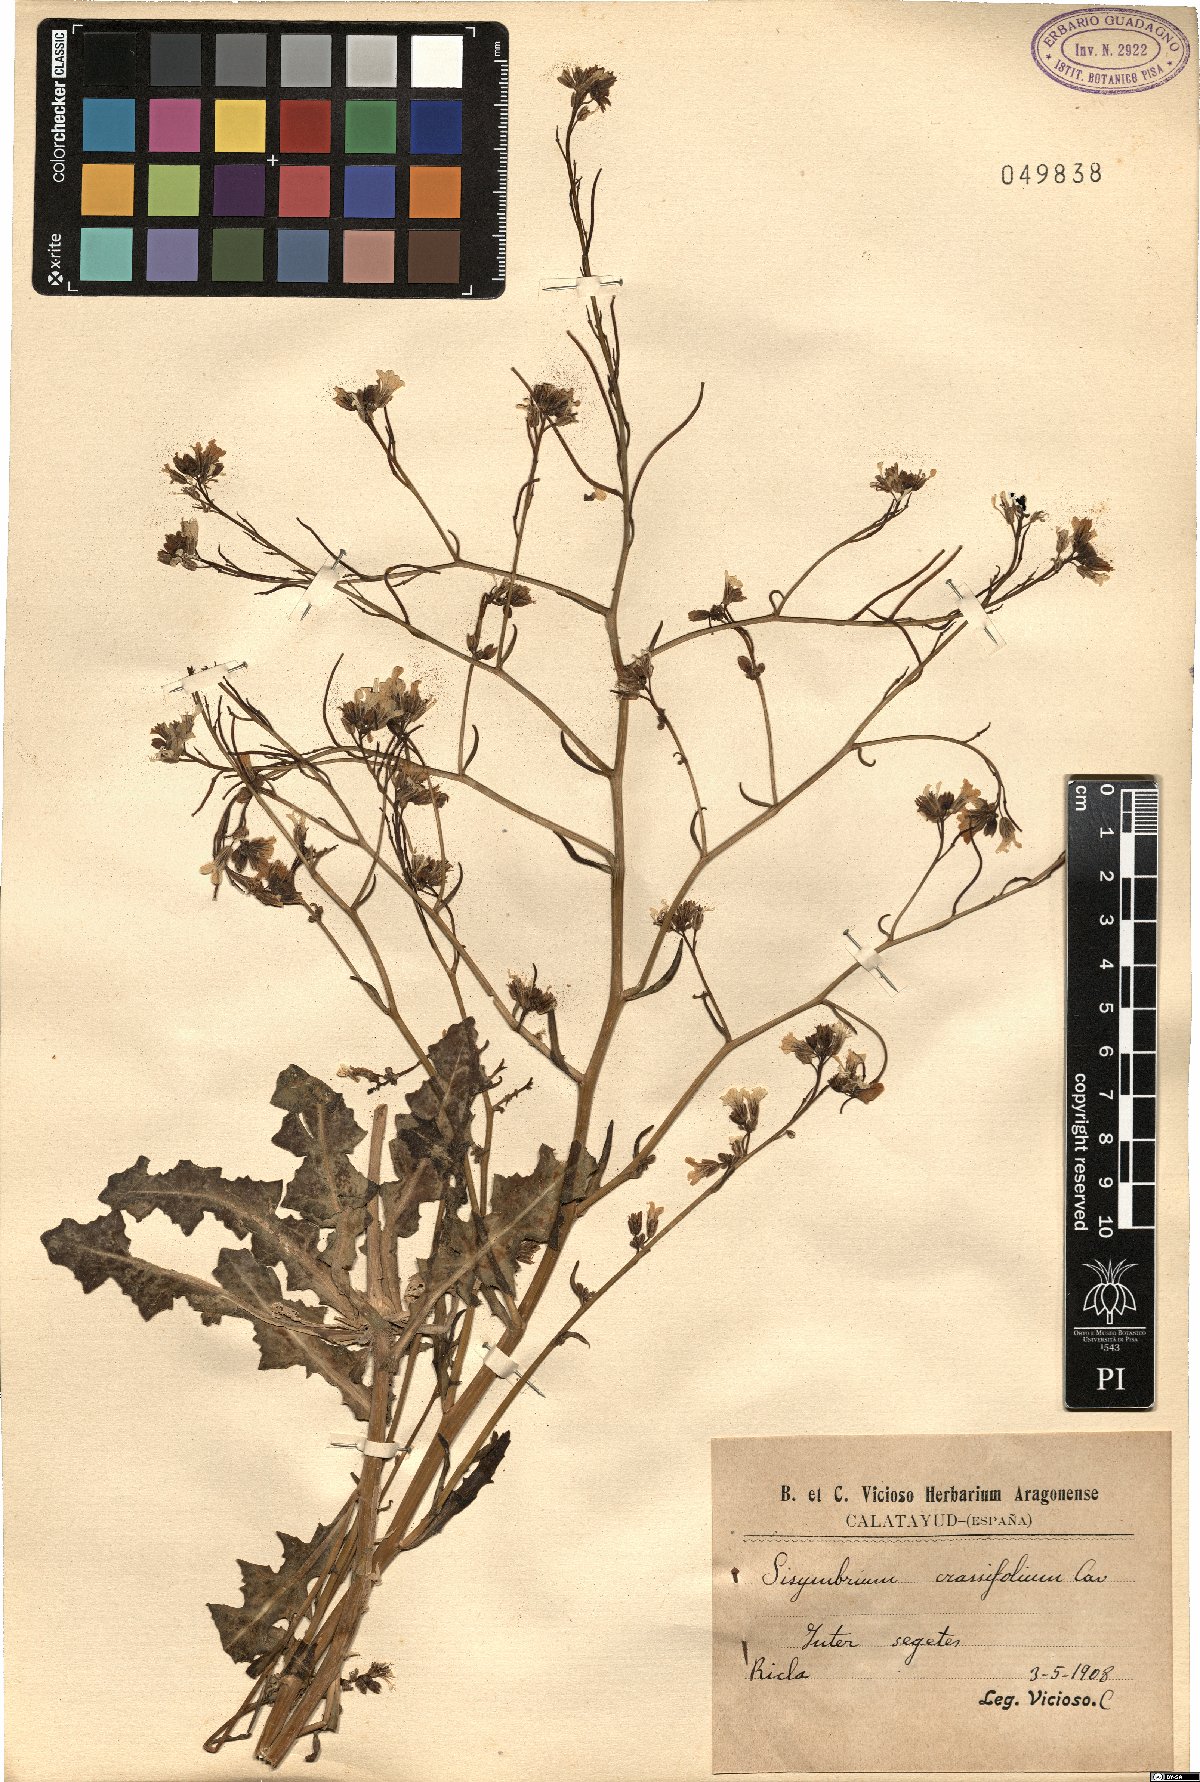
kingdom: Plantae
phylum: Tracheophyta
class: Magnoliopsida
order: Brassicales
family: Brassicaceae
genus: Sisymbrium
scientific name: Sisymbrium crassifolium
